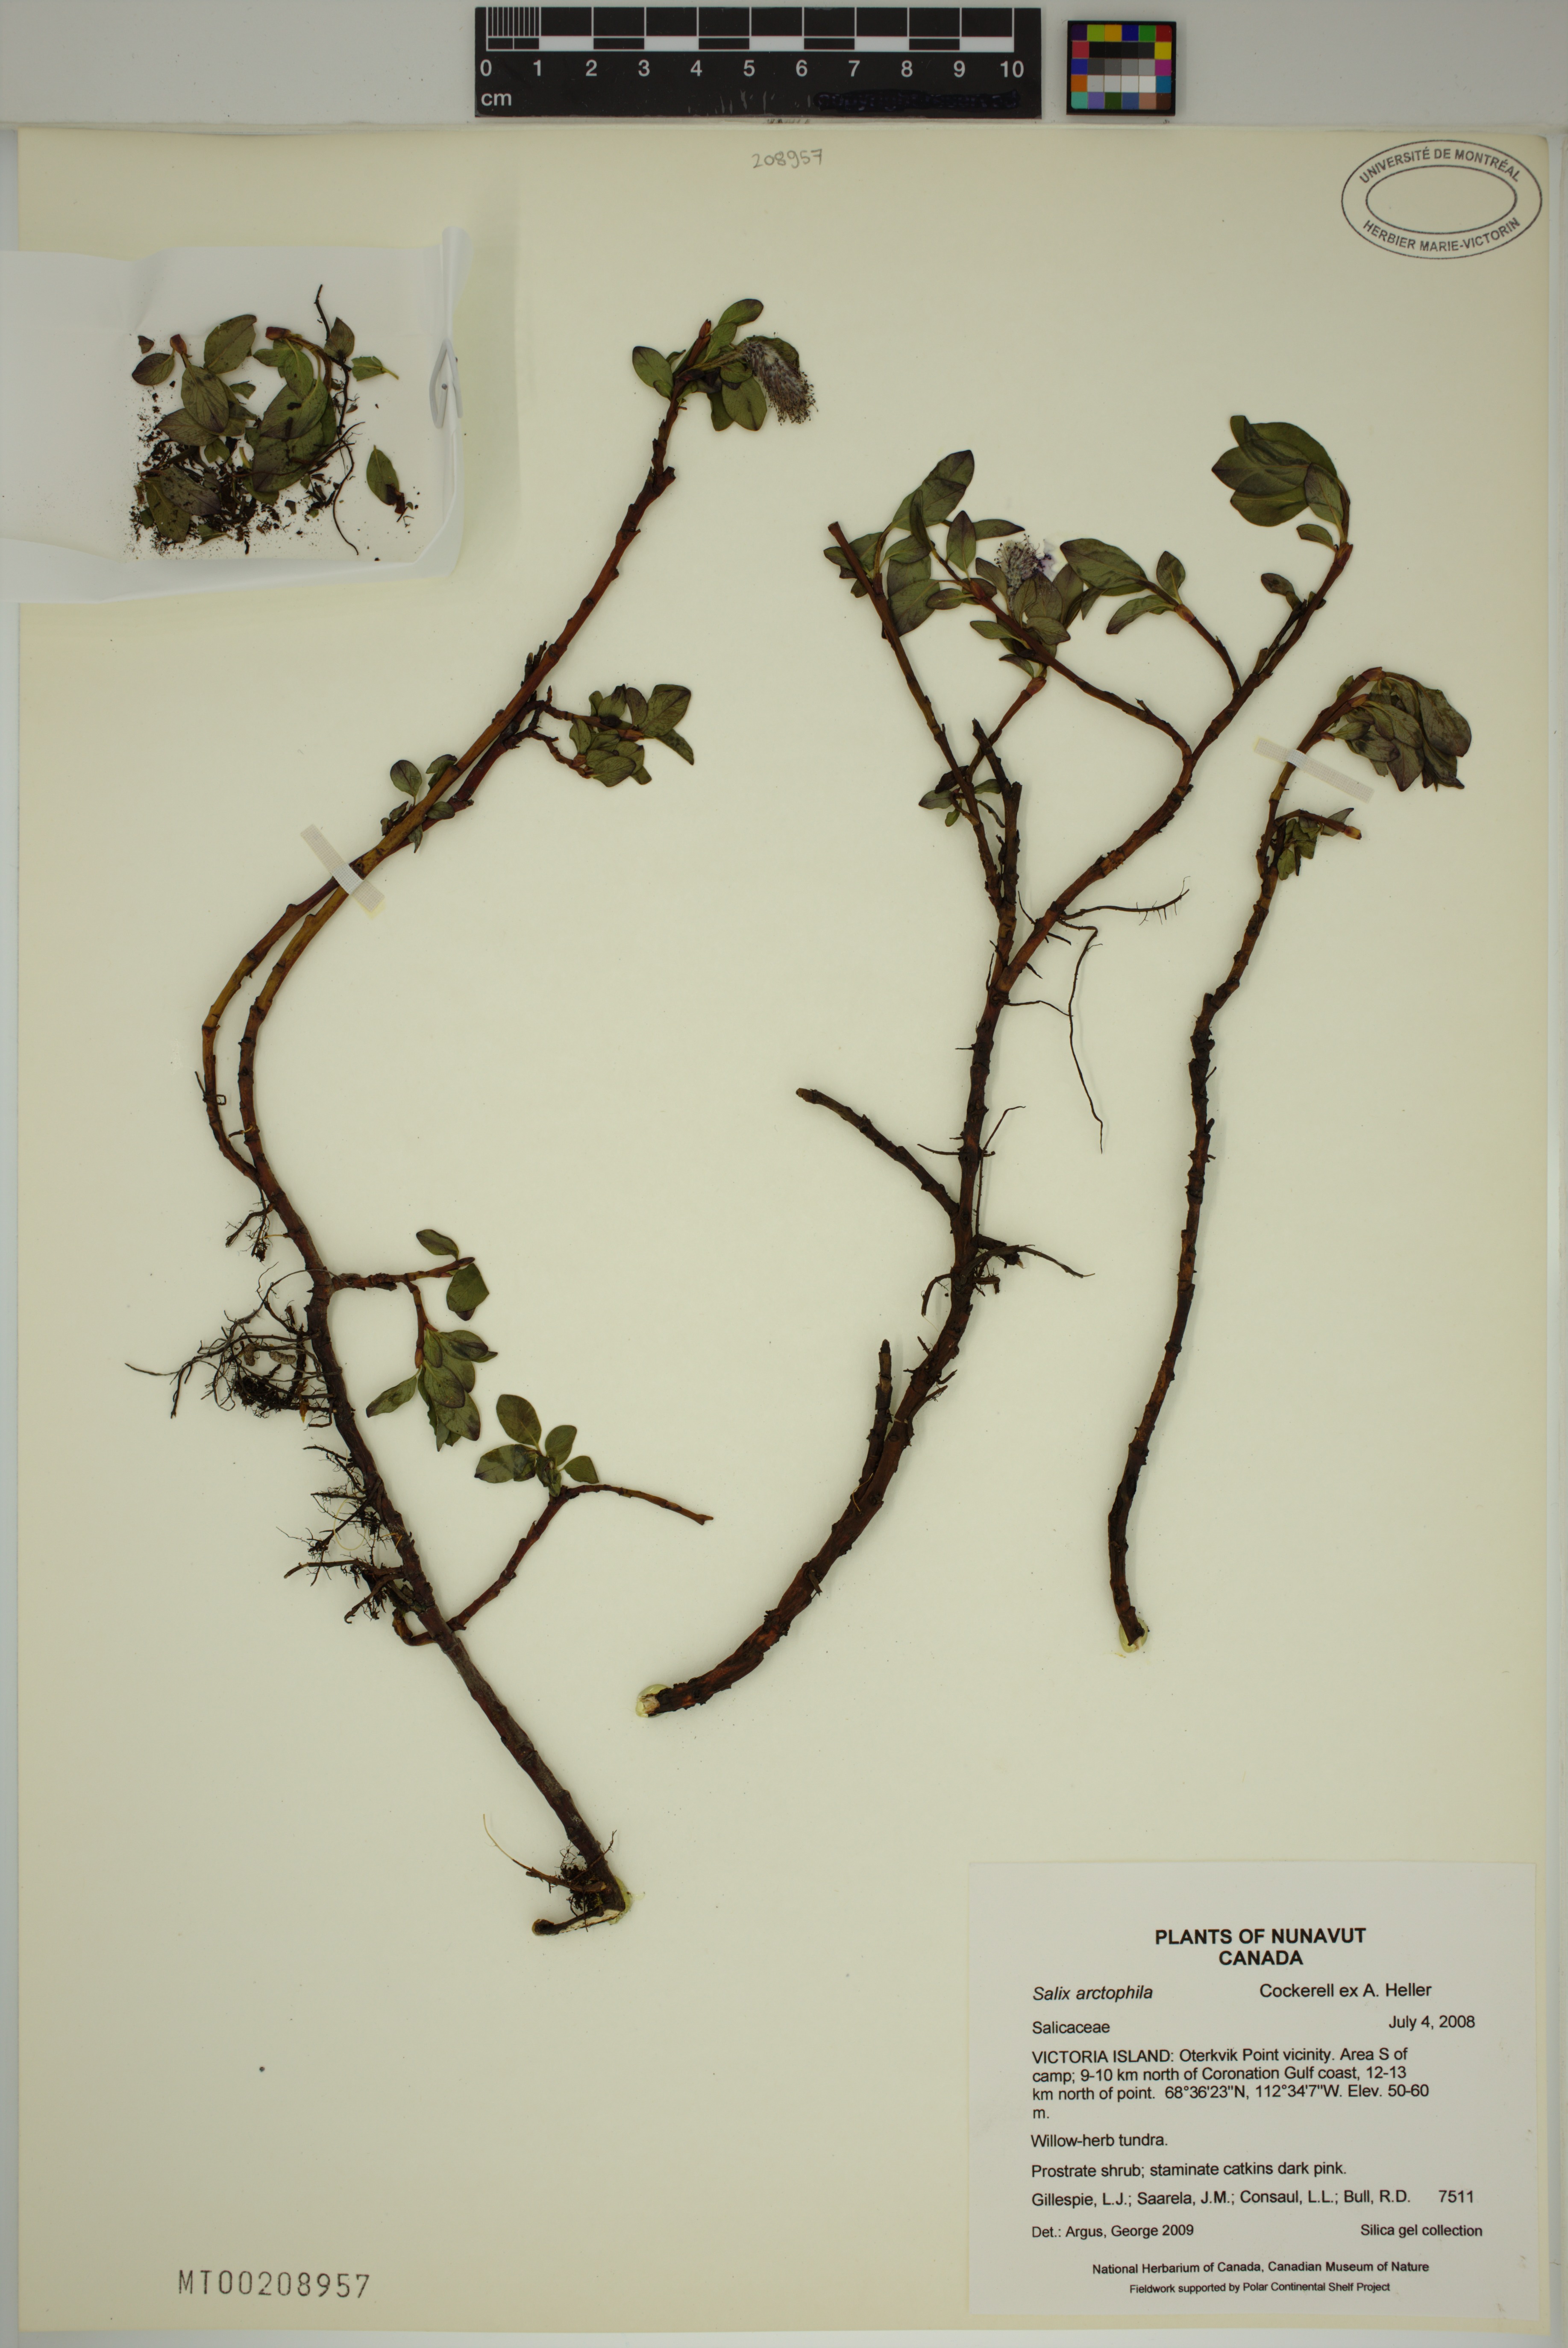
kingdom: Plantae
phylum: Tracheophyta
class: Magnoliopsida
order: Malpighiales
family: Salicaceae
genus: Salix
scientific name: Salix arctophila
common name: Greenland willow
